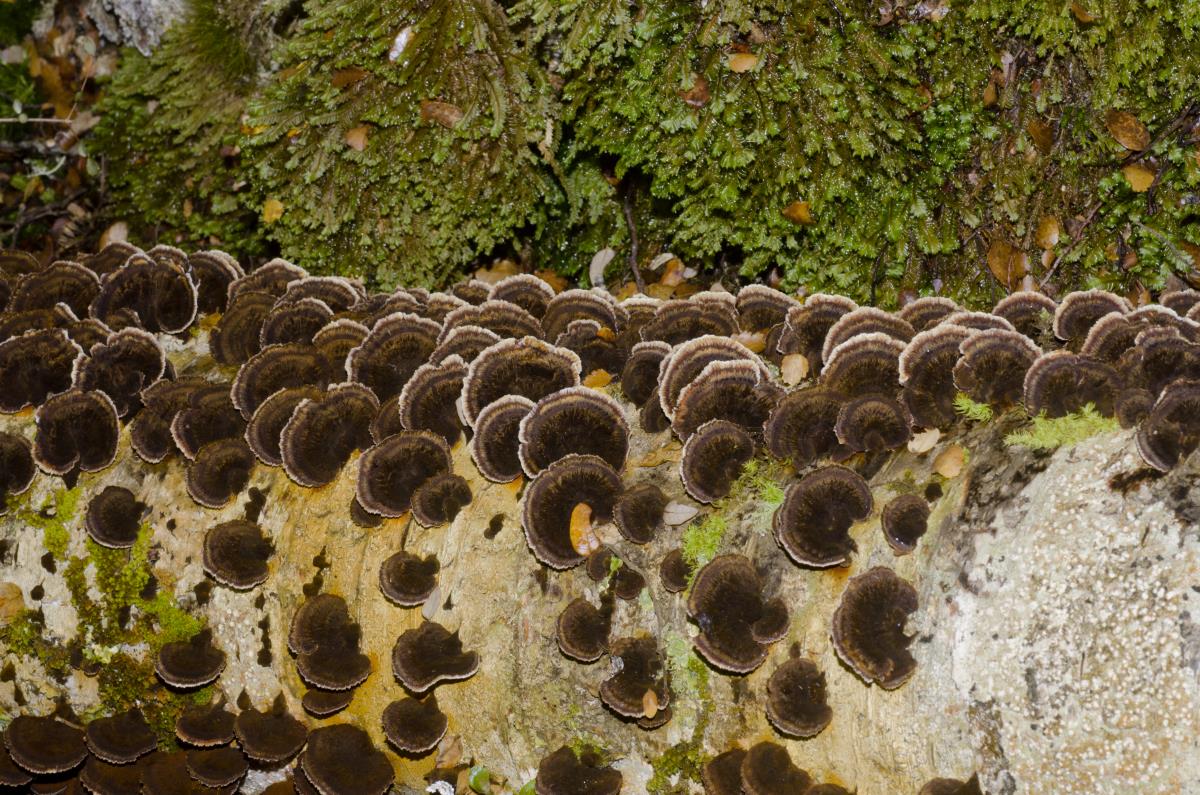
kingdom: Fungi
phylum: Basidiomycota
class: Agaricomycetes
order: Hymenochaetales
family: Hymenochaetaceae
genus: Nothonotus
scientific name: Nothonotus nothofagi
